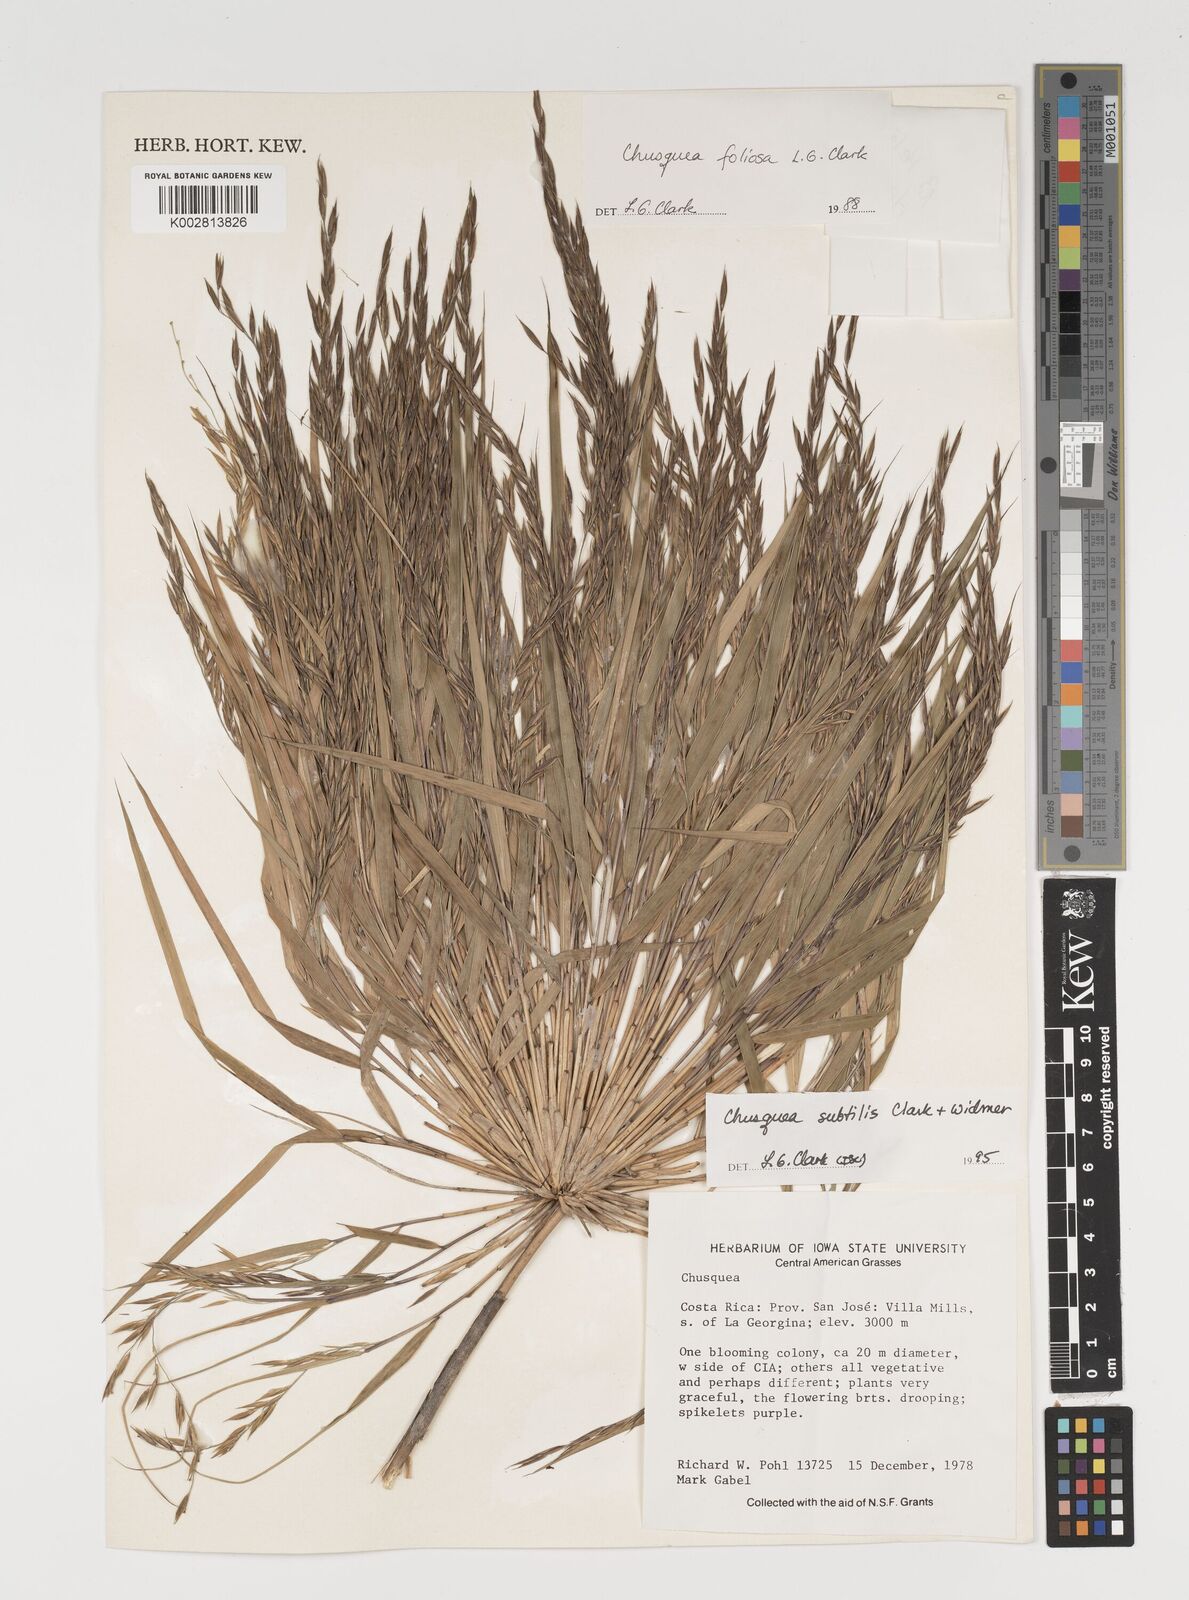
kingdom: Plantae
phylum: Tracheophyta
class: Liliopsida
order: Poales
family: Poaceae
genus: Chusquea
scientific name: Chusquea subtilis
